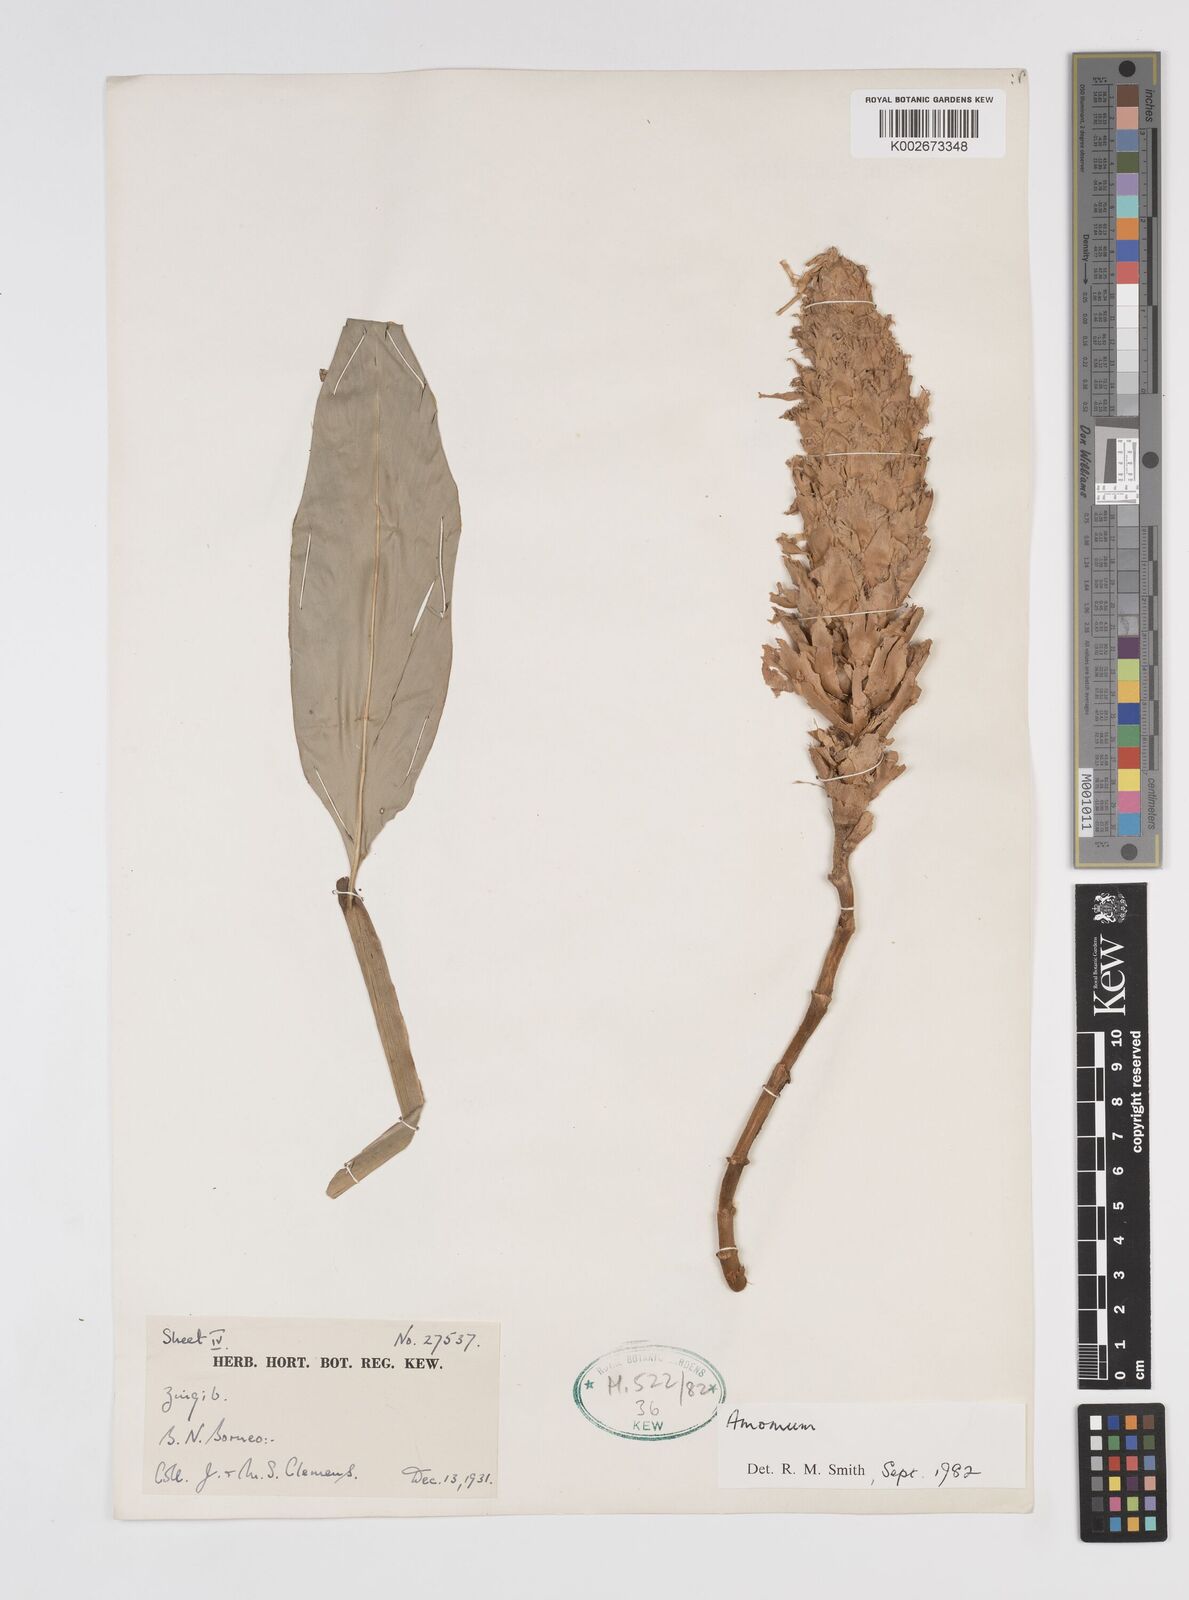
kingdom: Plantae
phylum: Tracheophyta
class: Liliopsida
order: Zingiberales
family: Zingiberaceae
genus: Sulettaria
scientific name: Sulettaria anomala
